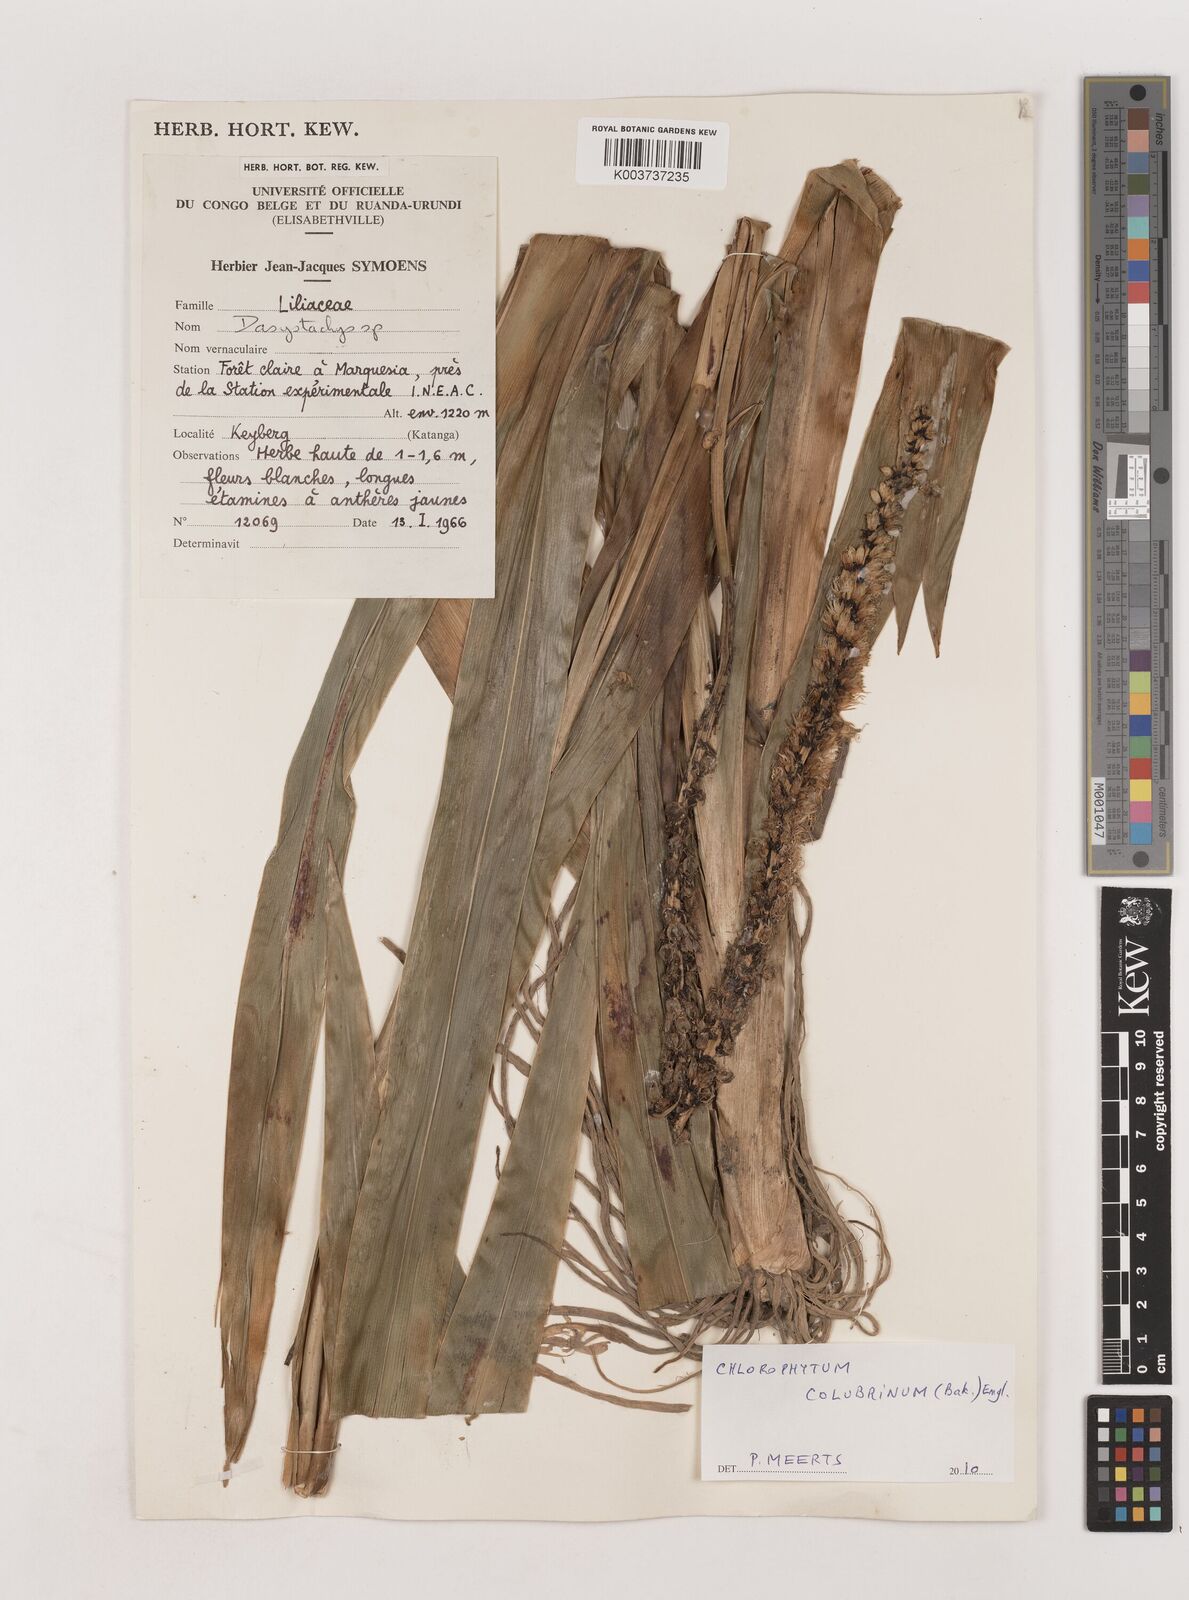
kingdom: Plantae
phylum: Tracheophyta
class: Liliopsida
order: Asparagales
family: Asparagaceae
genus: Chlorophytum
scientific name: Chlorophytum colubrinum
